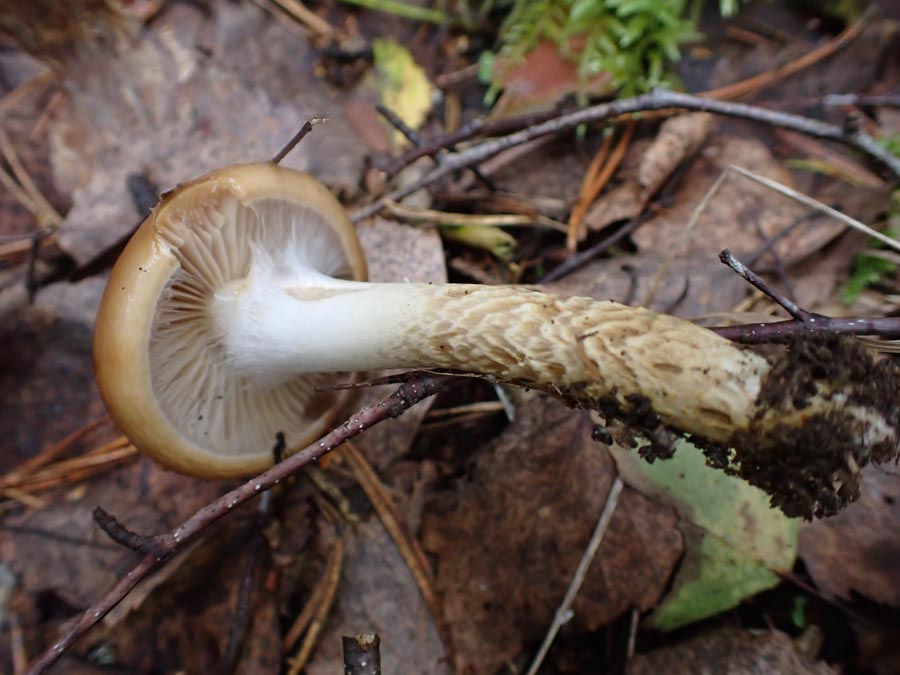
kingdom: Fungi
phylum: Basidiomycota
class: Agaricomycetes
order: Agaricales
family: Cortinariaceae
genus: Cortinarius
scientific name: Cortinarius trivialis
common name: Girdled webcap
